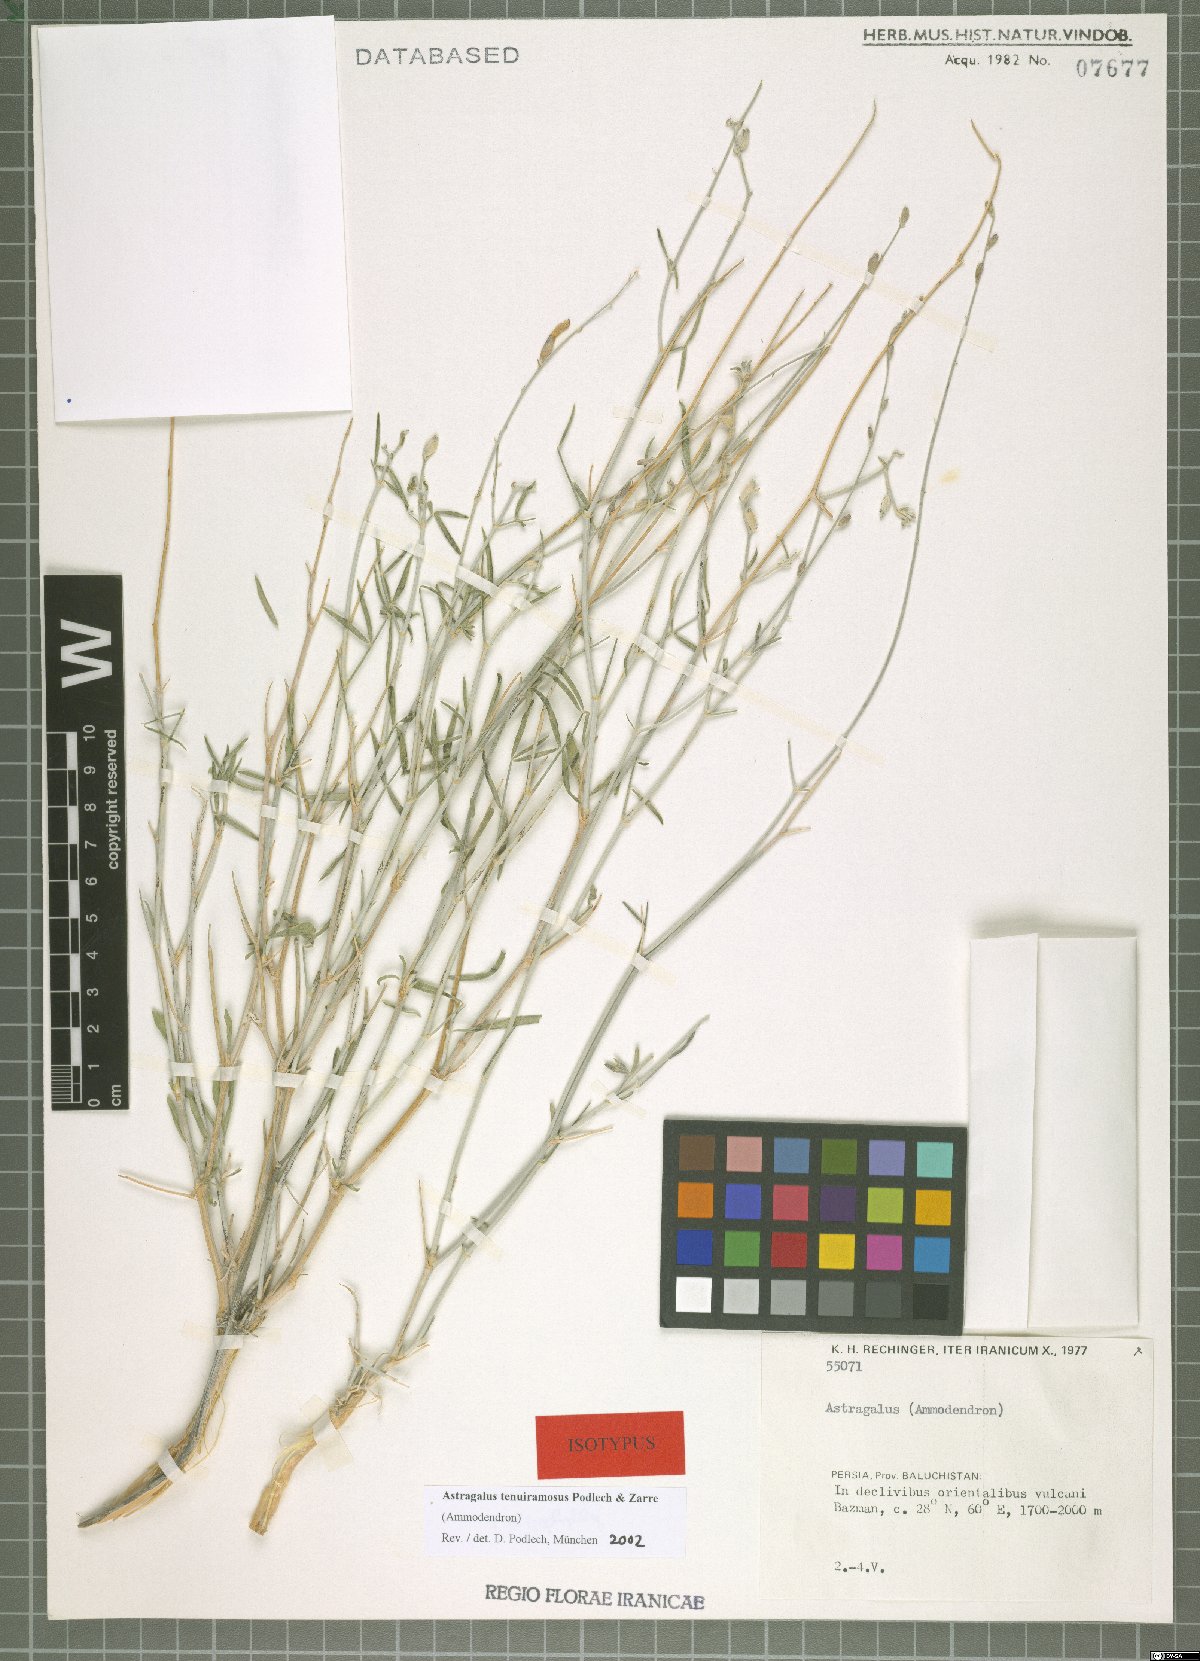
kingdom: Plantae
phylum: Tracheophyta
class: Magnoliopsida
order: Fabales
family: Fabaceae
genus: Astragalus
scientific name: Astragalus tenuiramosus
